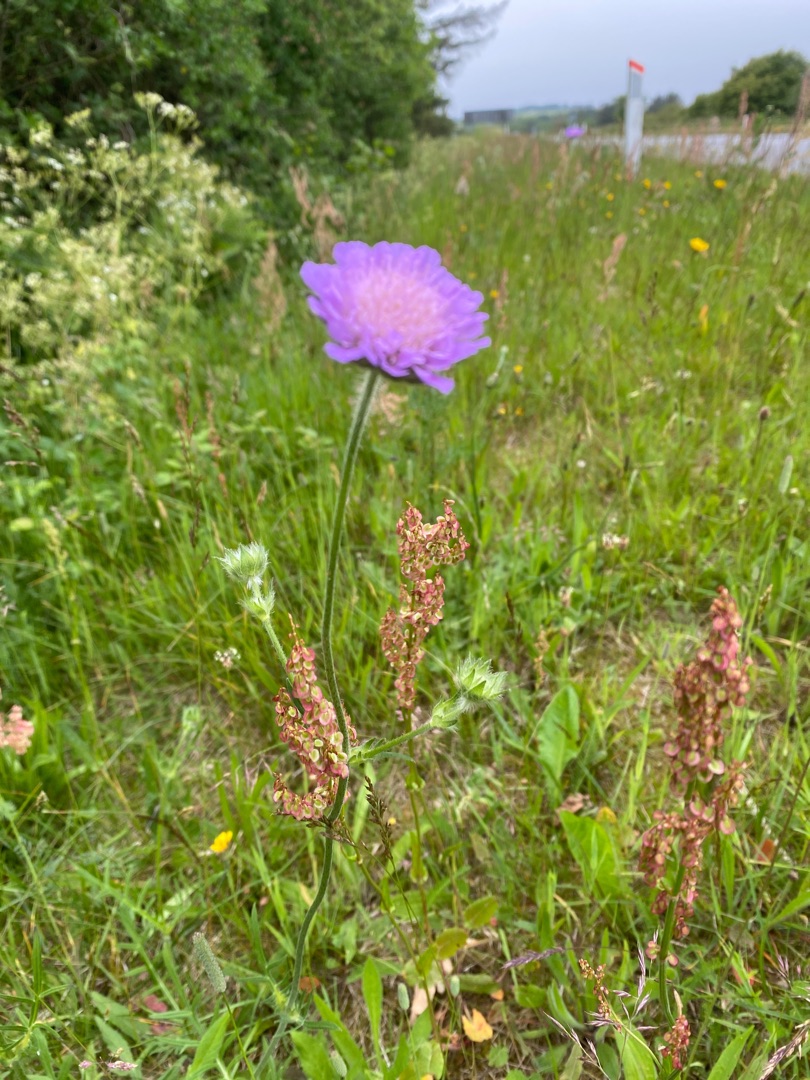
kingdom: Plantae
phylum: Tracheophyta
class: Magnoliopsida
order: Dipsacales
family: Caprifoliaceae
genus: Knautia
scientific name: Knautia arvensis
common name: Blåhat
